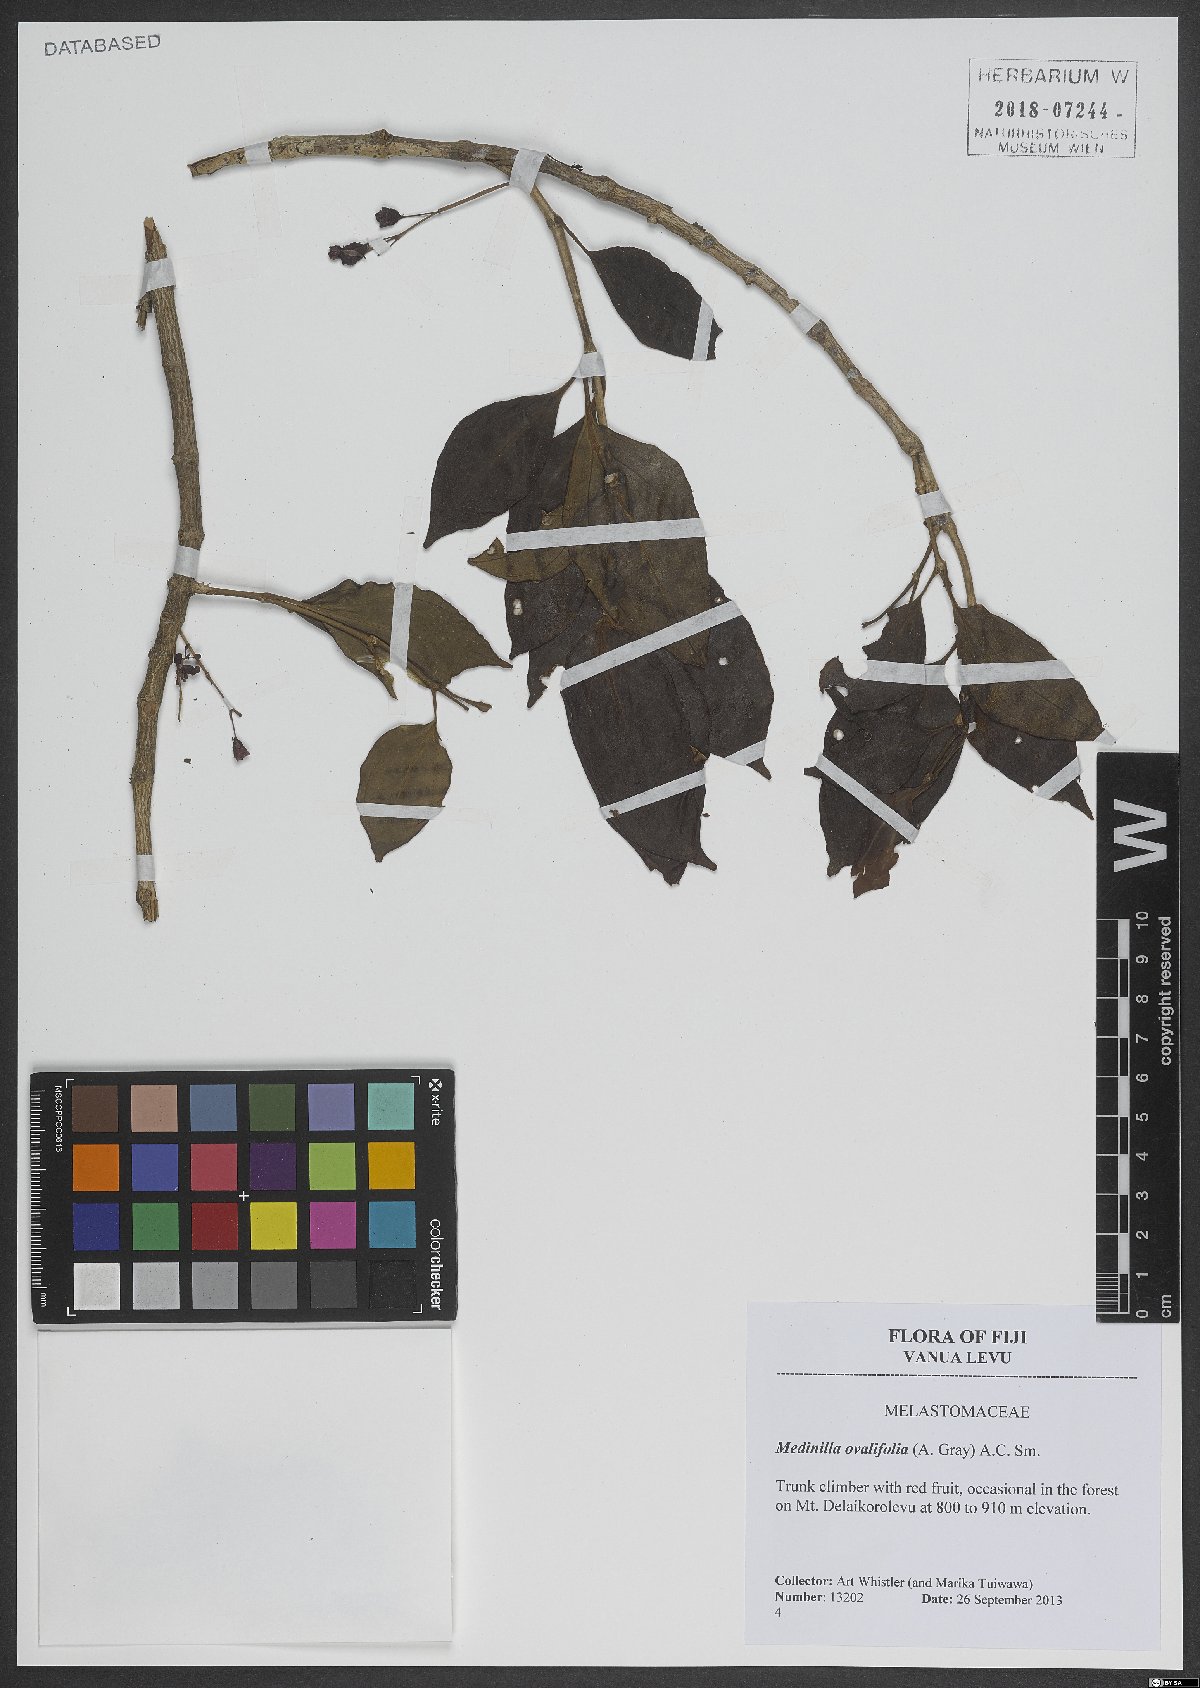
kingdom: Plantae
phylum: Tracheophyta
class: Magnoliopsida
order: Myrtales
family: Melastomataceae
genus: Medinilla
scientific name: Medinilla ovalifolia
